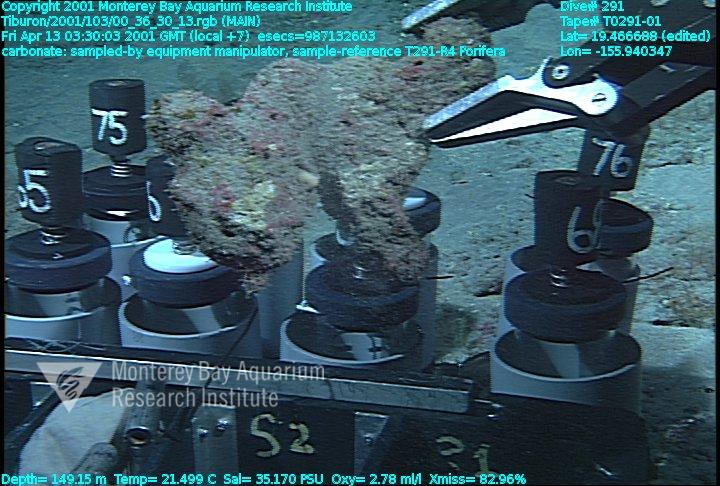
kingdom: Animalia
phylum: Porifera
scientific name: Porifera
